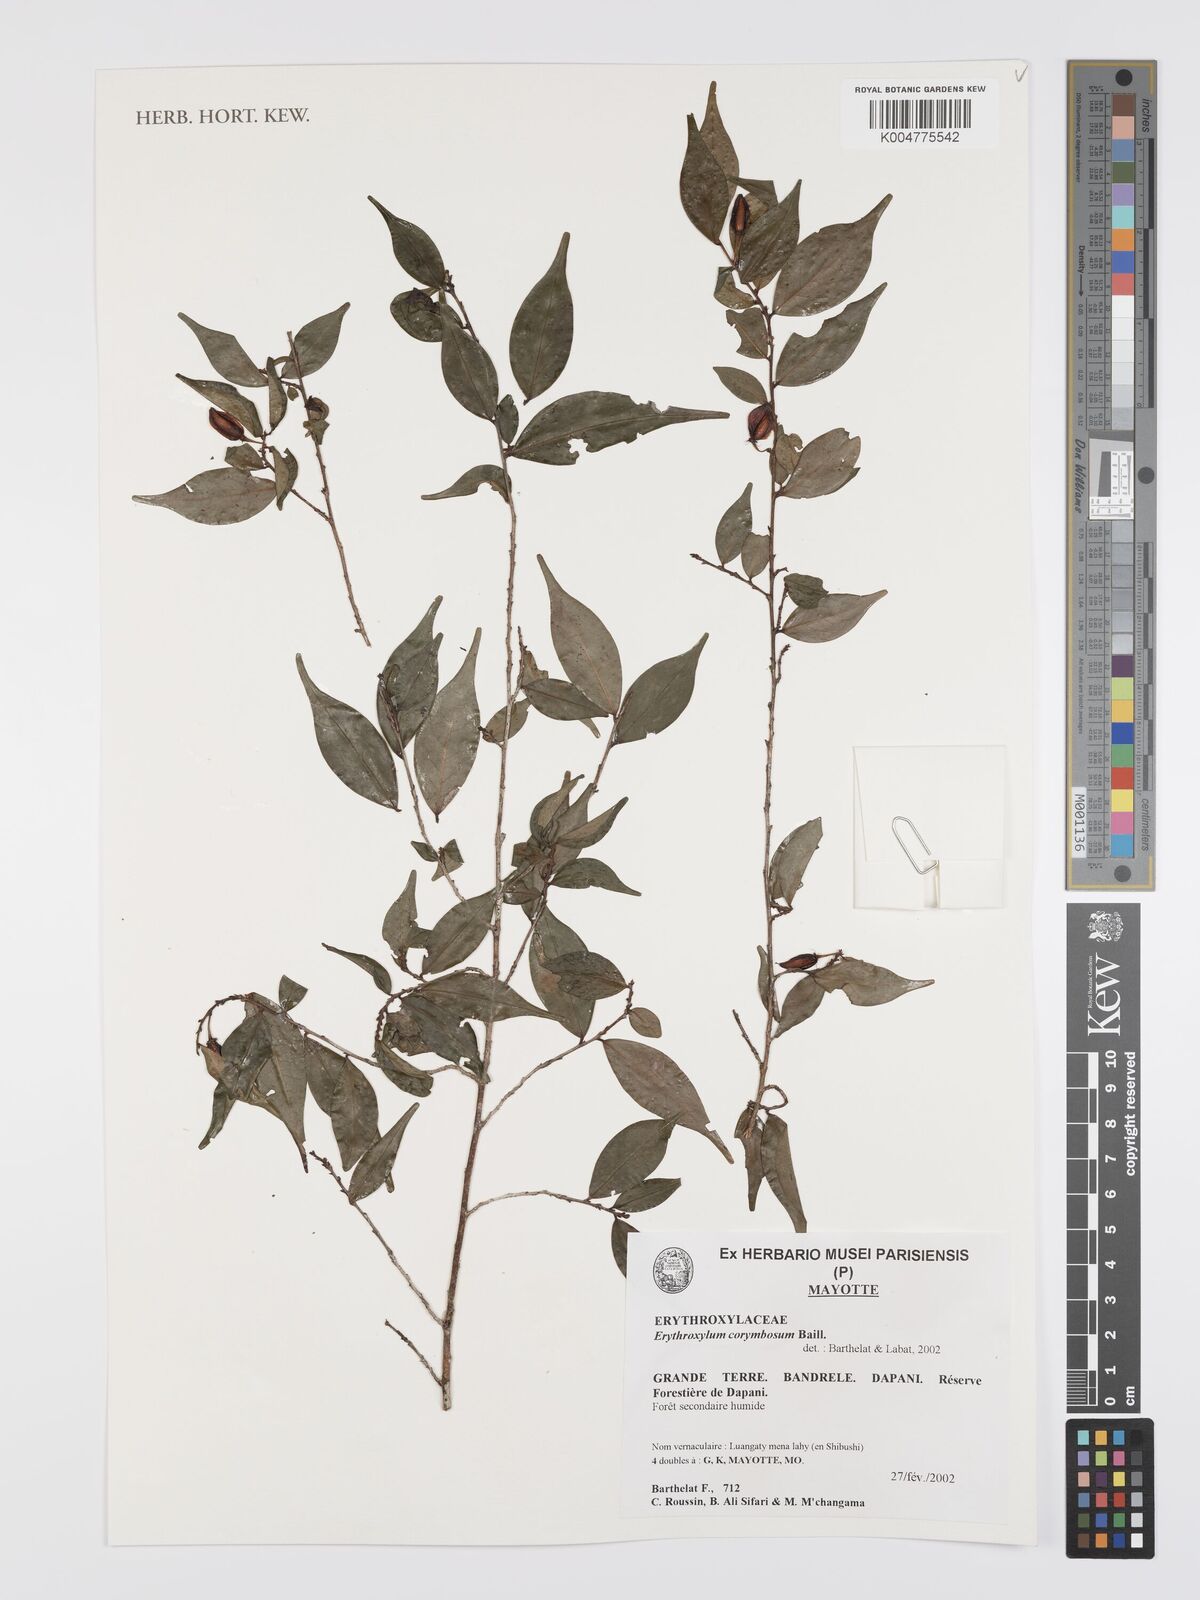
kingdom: Plantae
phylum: Tracheophyta
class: Magnoliopsida
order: Malpighiales
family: Erythroxylaceae
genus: Erythroxylum
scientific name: Erythroxylum corymbosum
